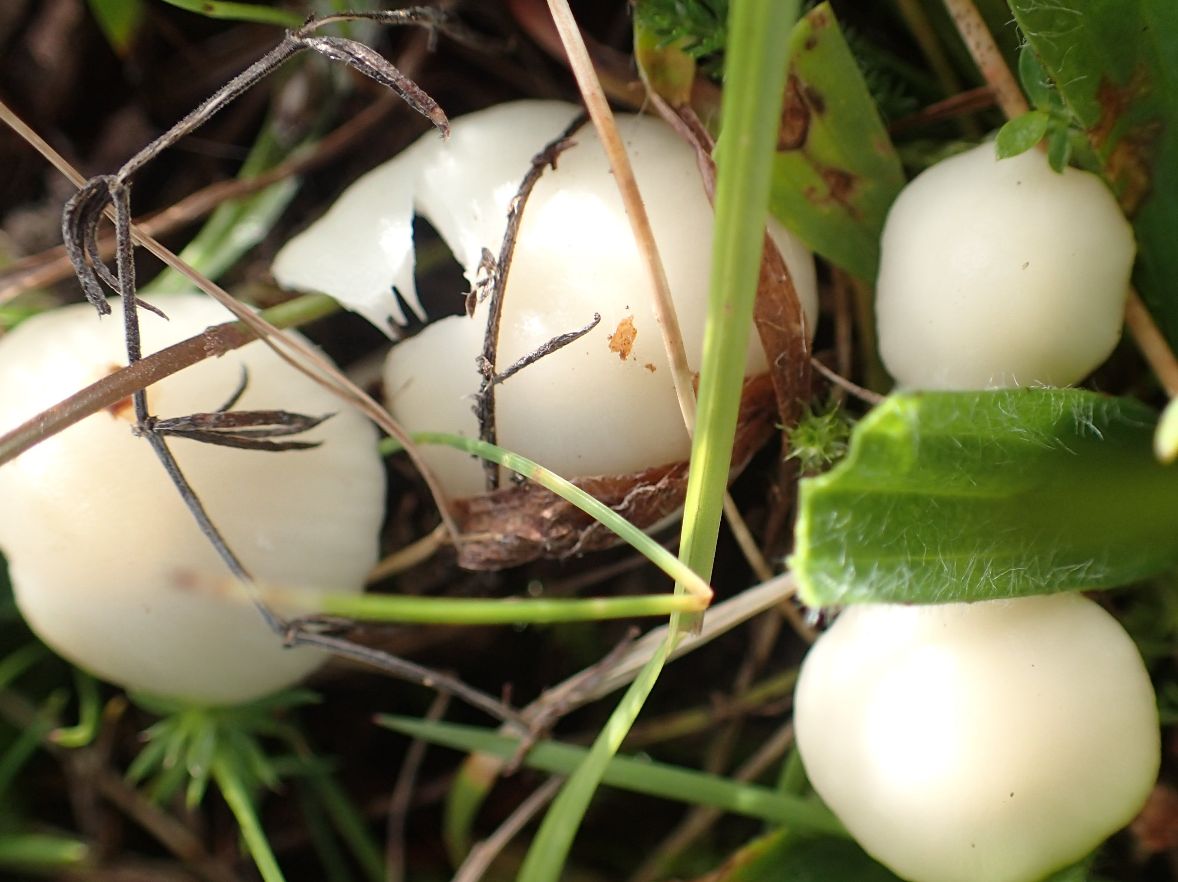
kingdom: Fungi
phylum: Basidiomycota
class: Agaricomycetes
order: Agaricales
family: Hygrophoraceae
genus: Cuphophyllus
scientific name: Cuphophyllus virgineus
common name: snehvid vokshat
